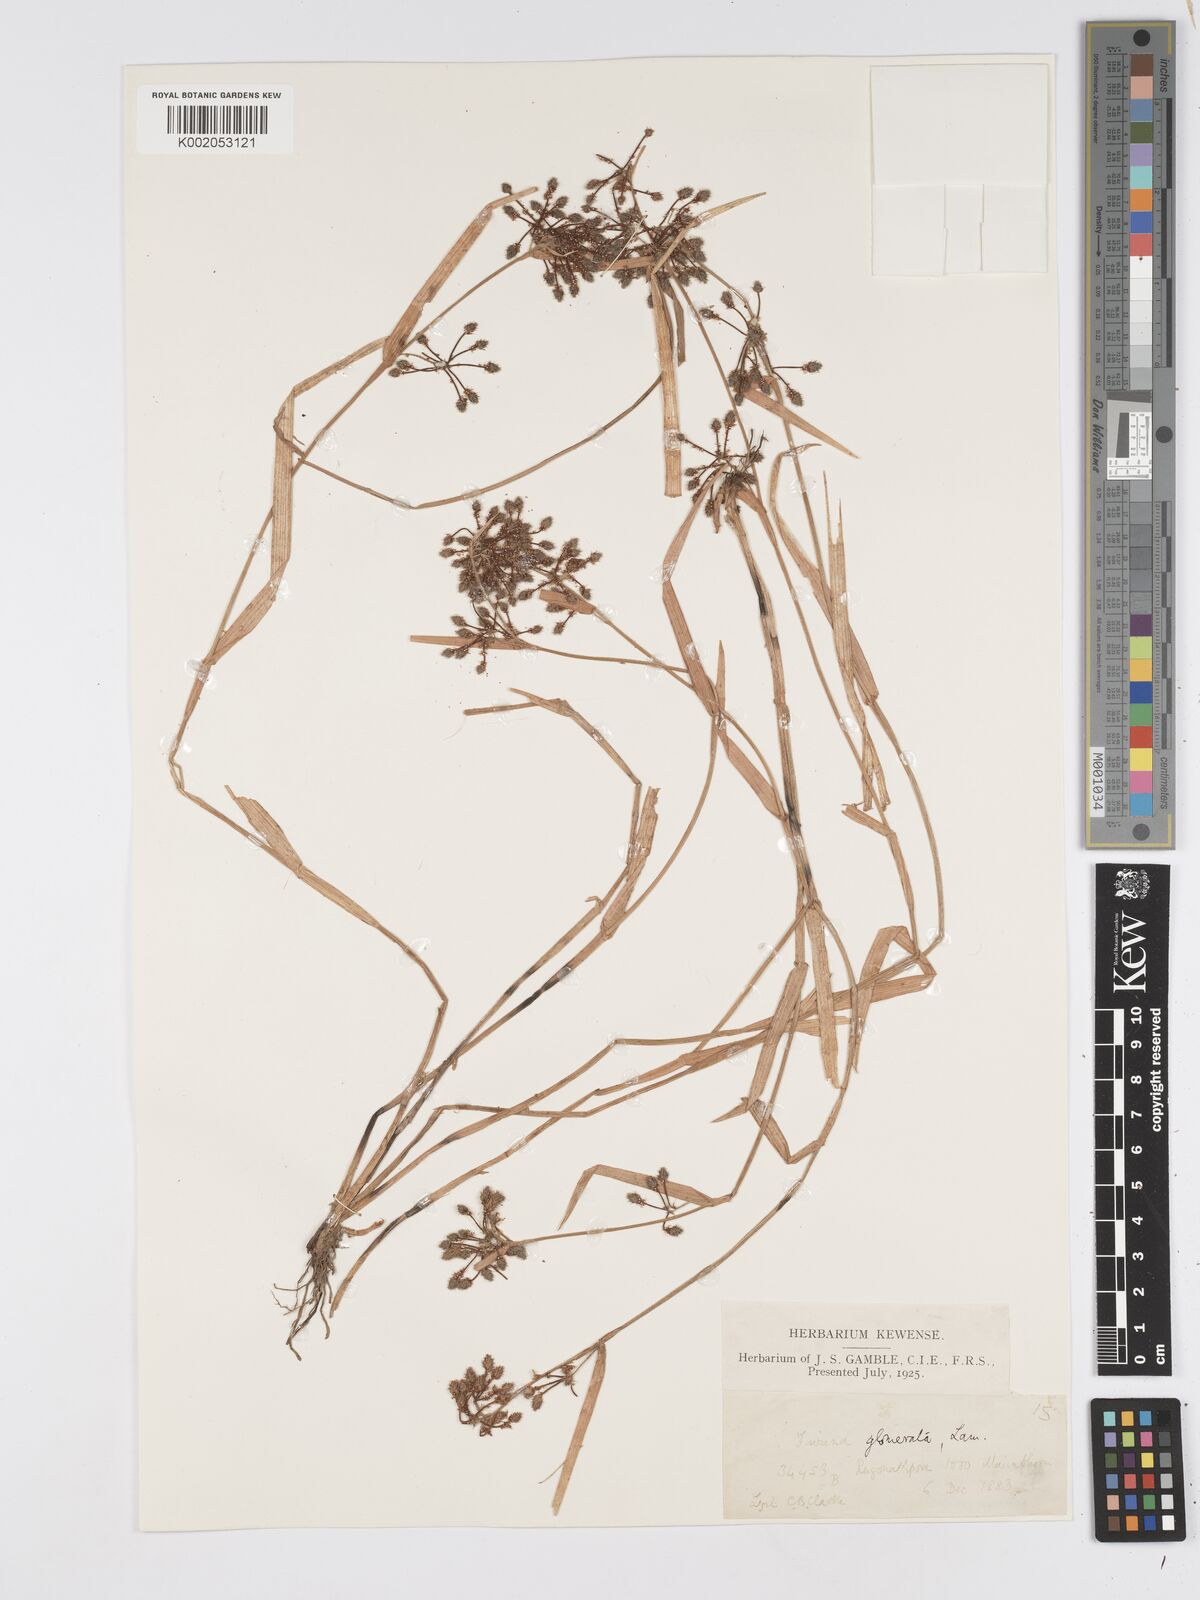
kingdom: Plantae
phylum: Tracheophyta
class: Liliopsida
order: Poales
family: Cyperaceae
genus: Fuirena
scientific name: Fuirena ciliaris
